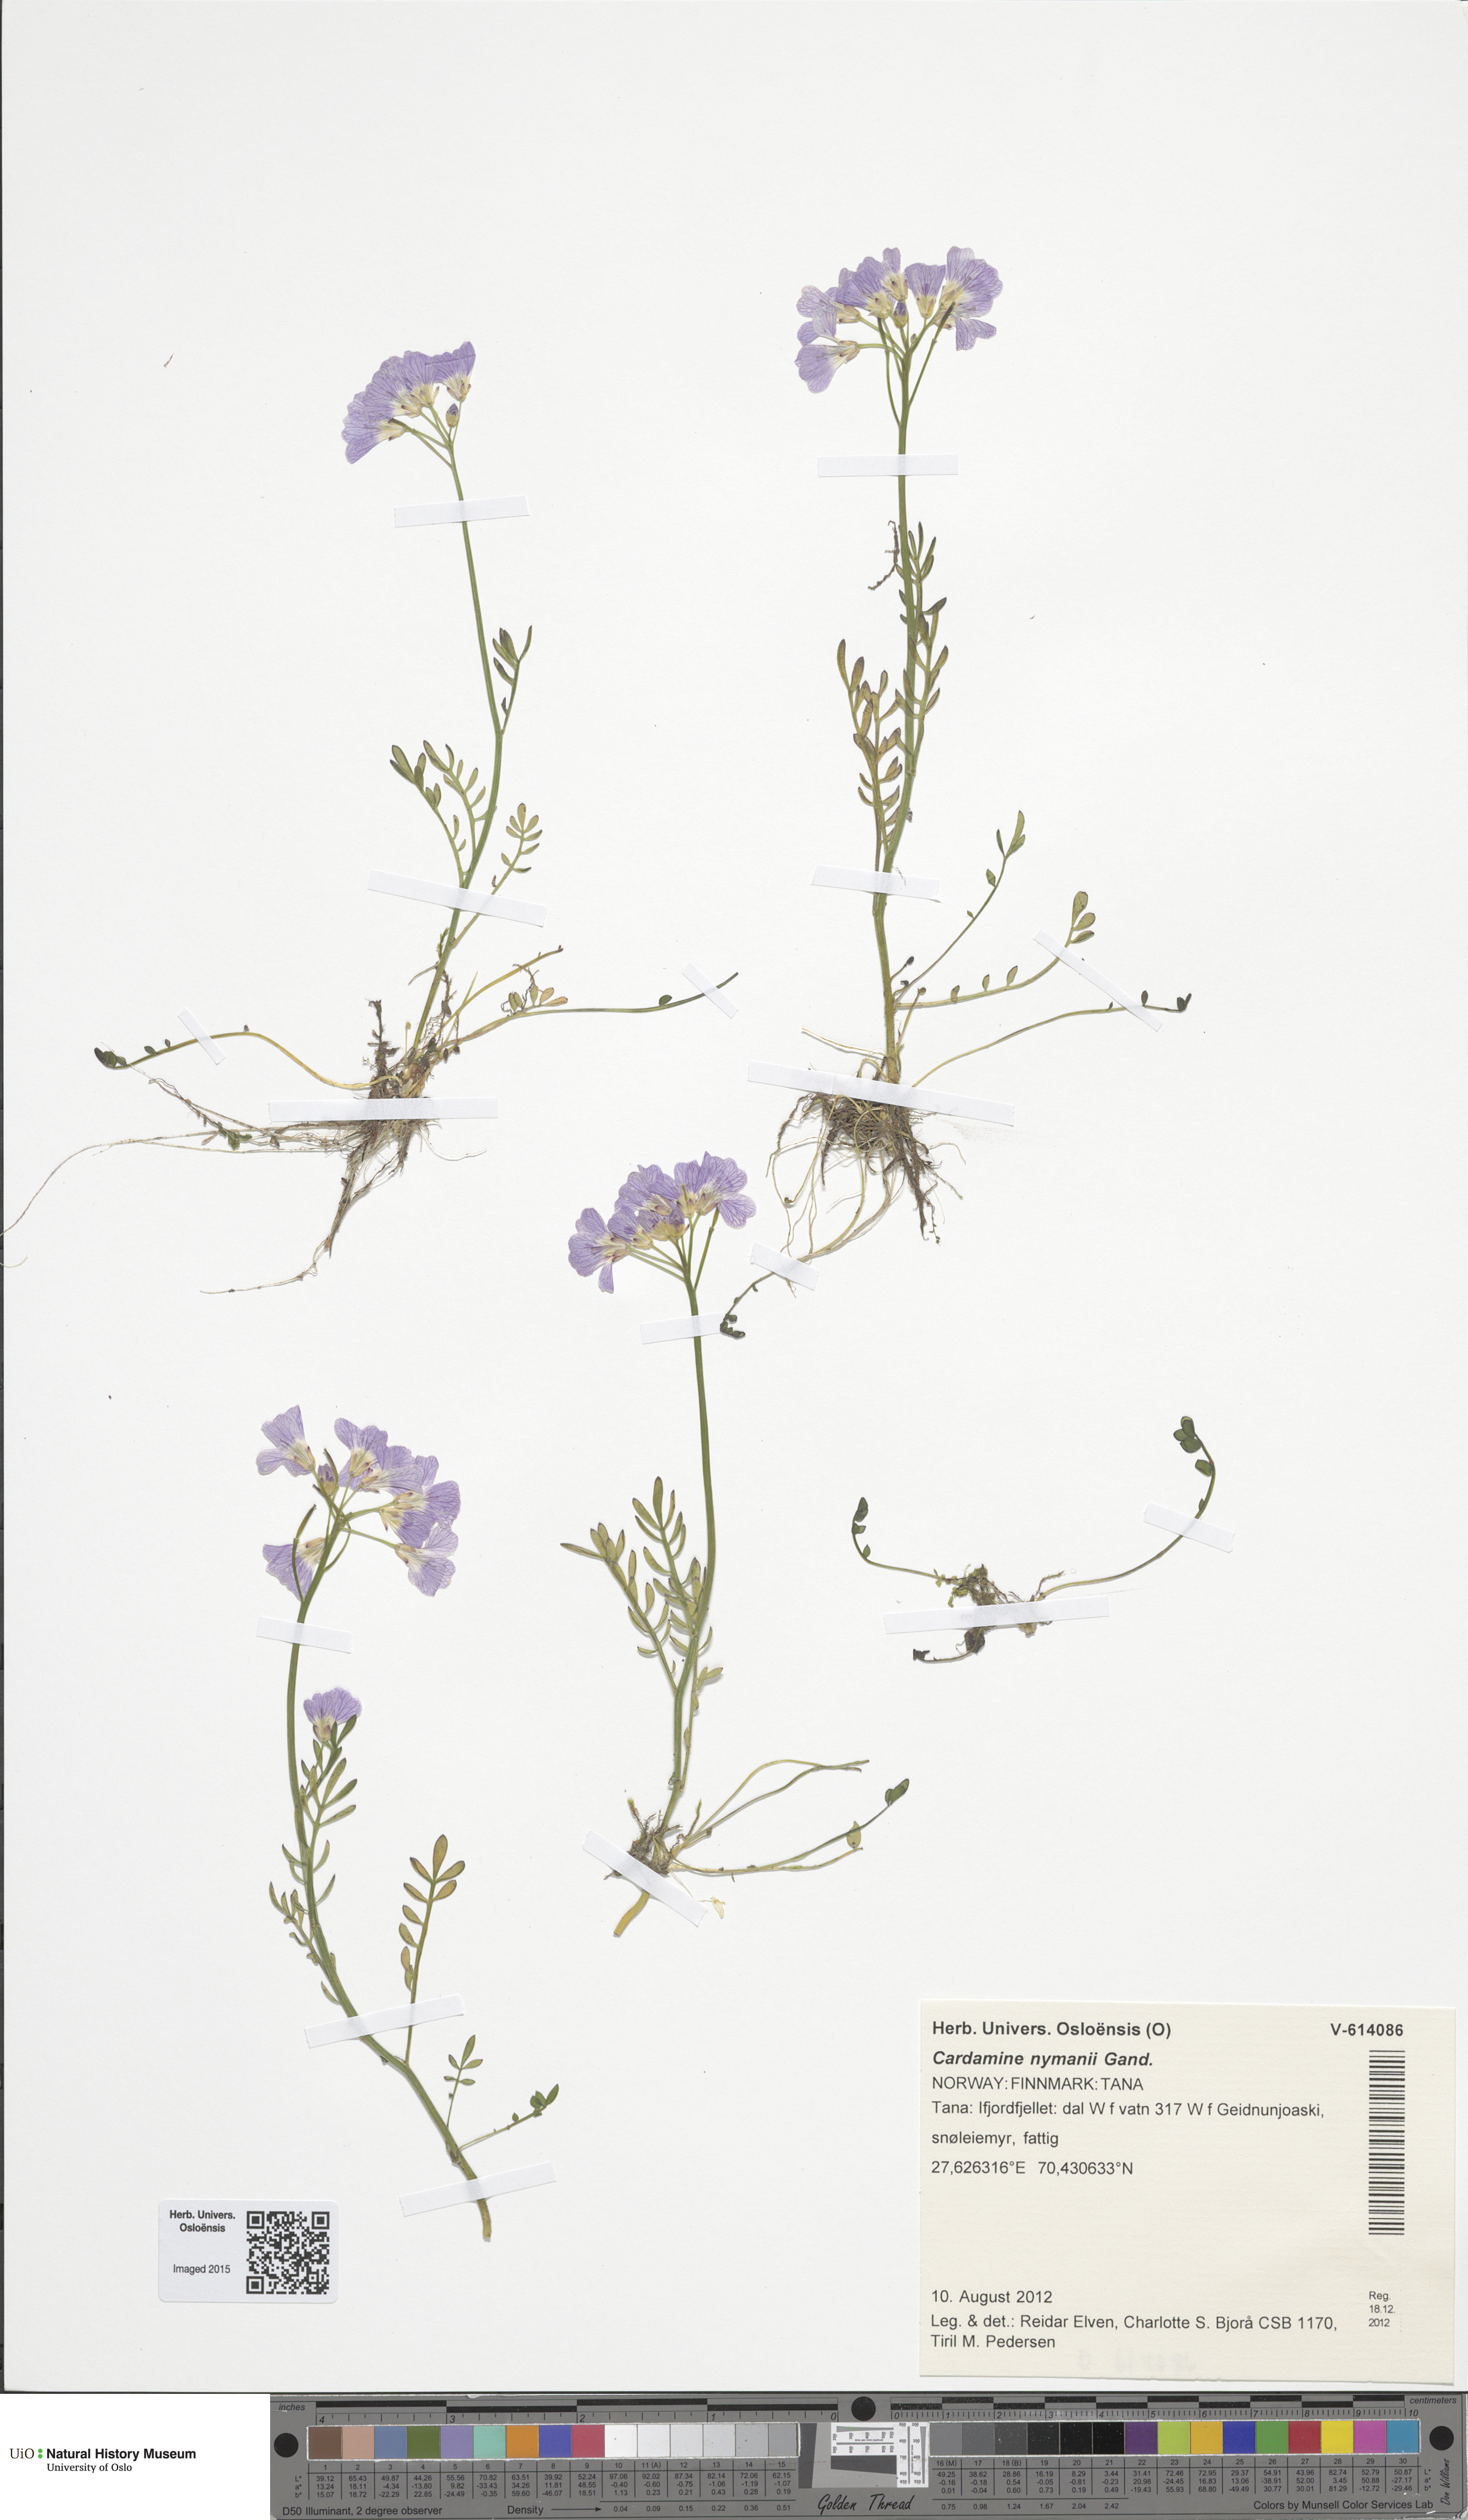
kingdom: Plantae
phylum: Tracheophyta
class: Magnoliopsida
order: Brassicales
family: Brassicaceae
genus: Cardamine
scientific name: Cardamine nymanii
